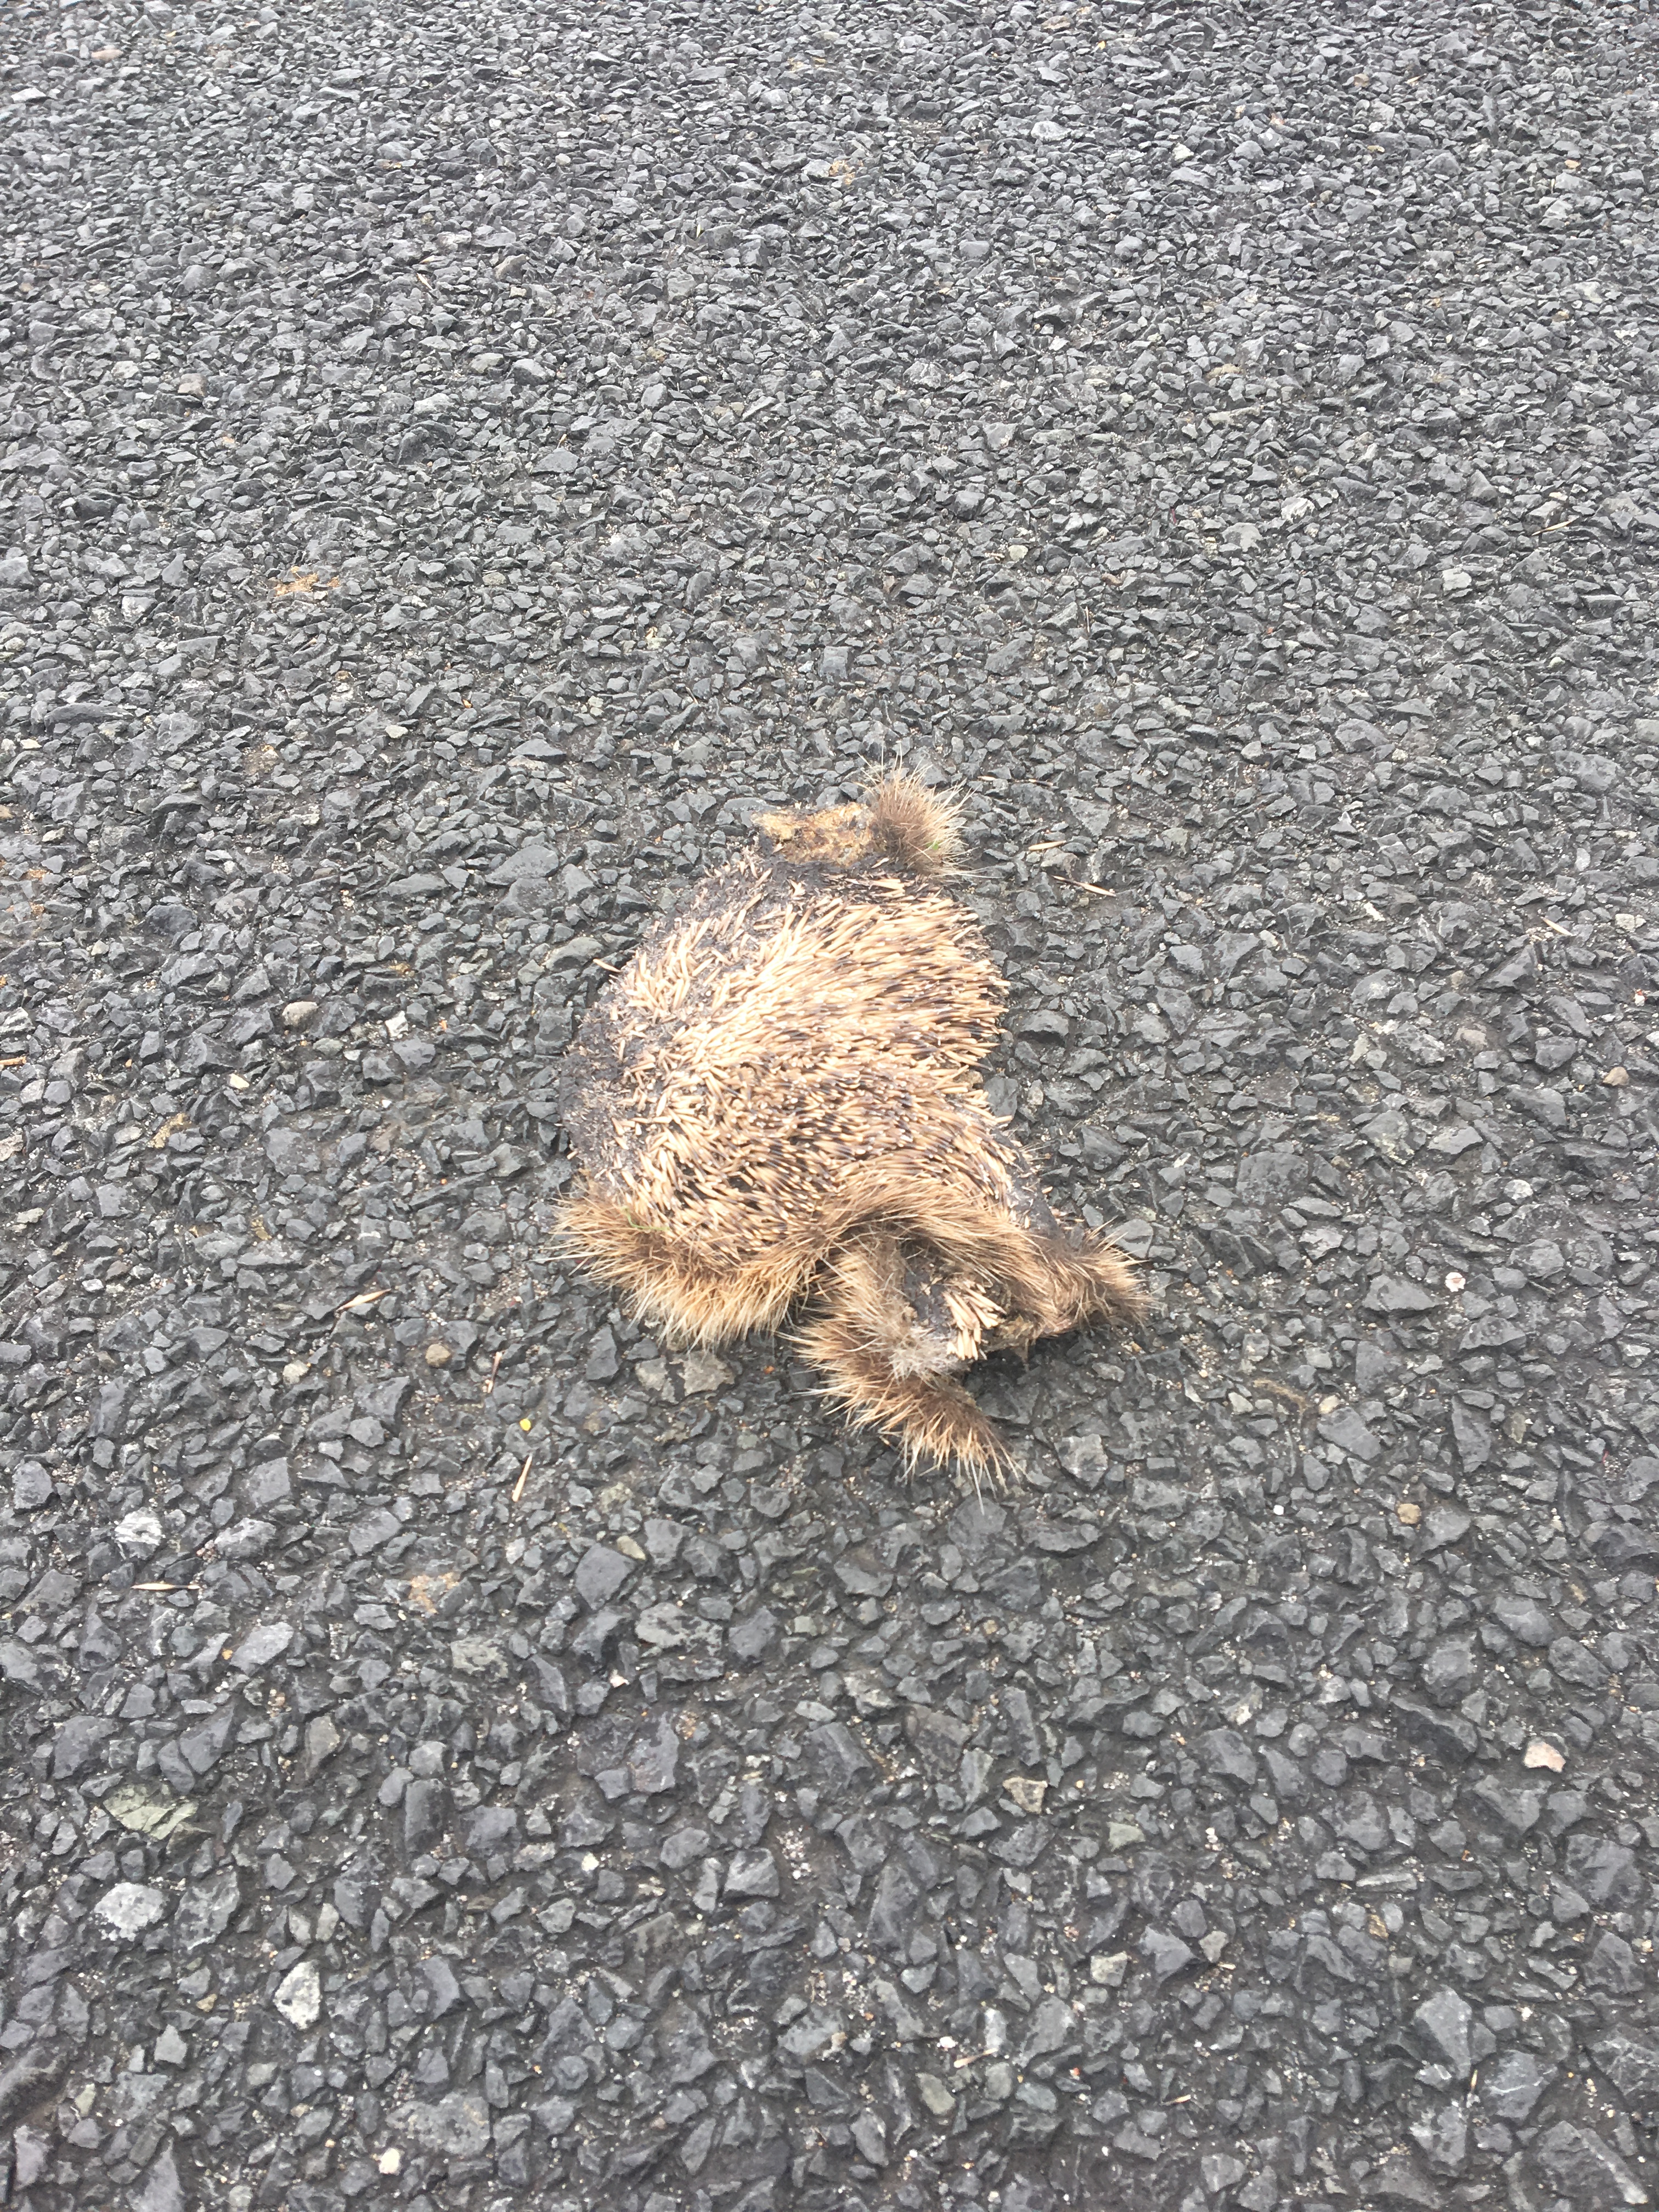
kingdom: Animalia
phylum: Chordata
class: Mammalia
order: Erinaceomorpha
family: Erinaceidae
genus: Erinaceus
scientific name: Erinaceus
